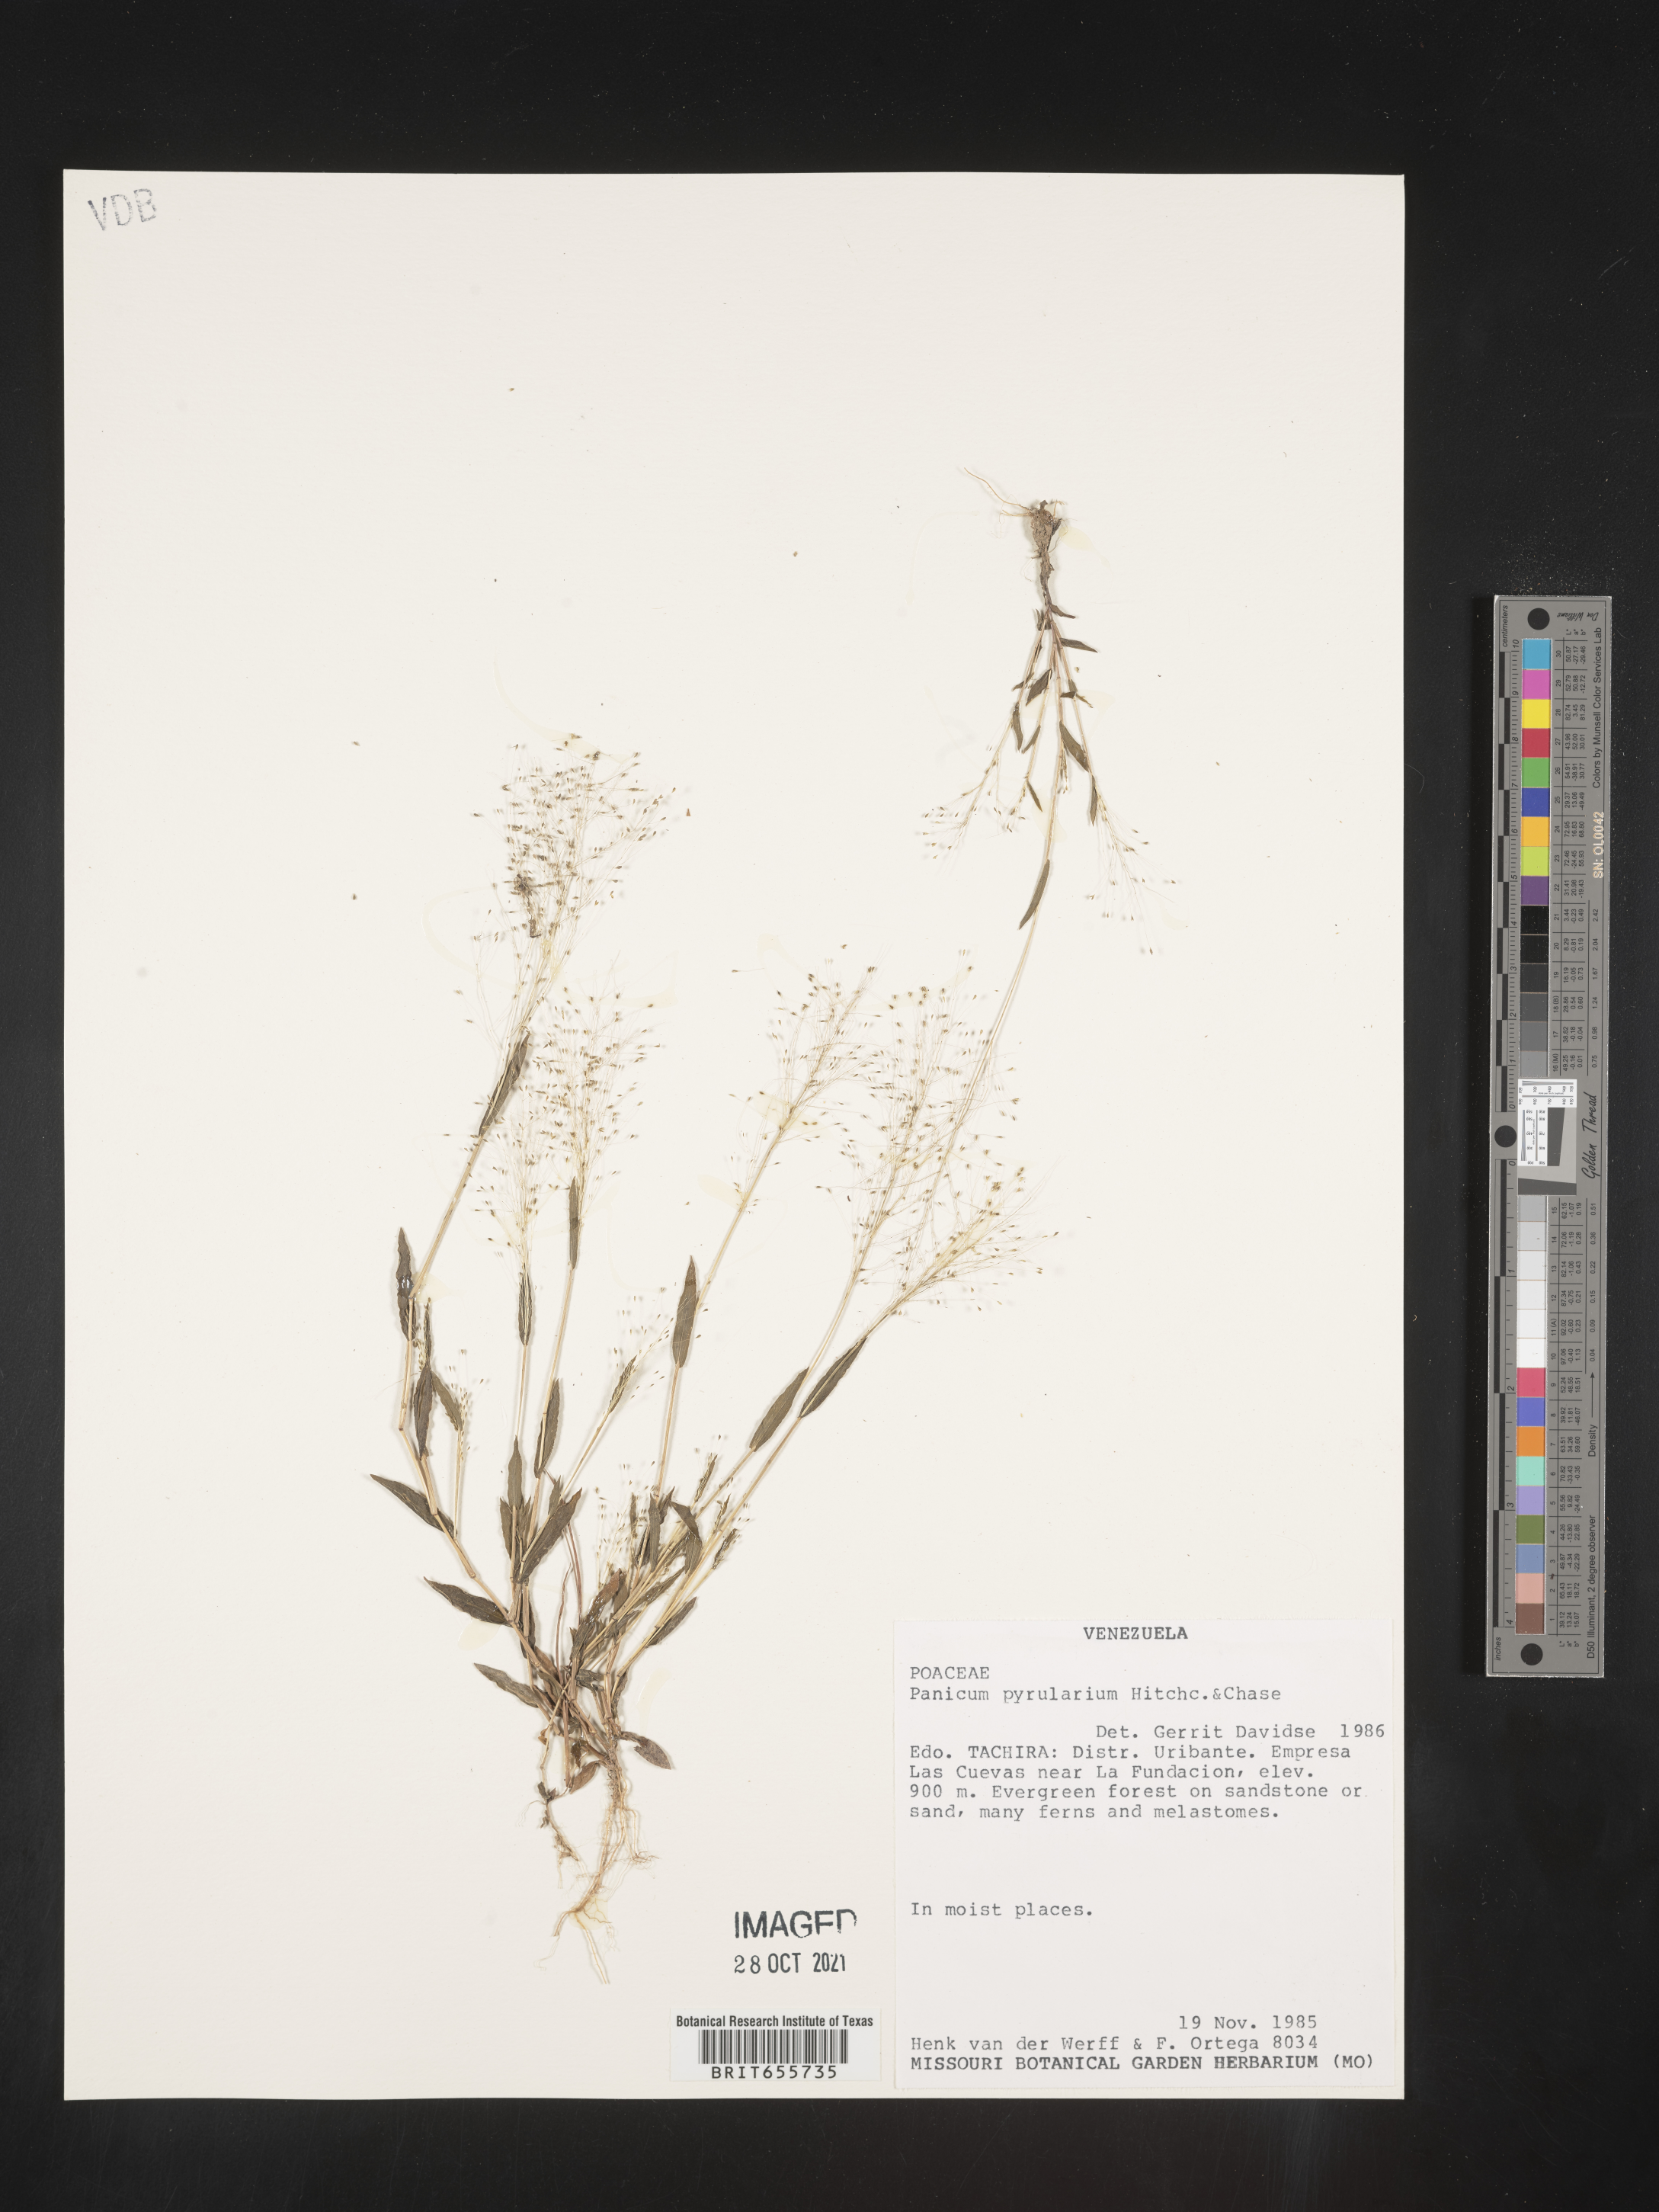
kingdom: Plantae
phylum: Tracheophyta
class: Liliopsida
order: Poales
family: Poaceae
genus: Panicum
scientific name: Panicum
